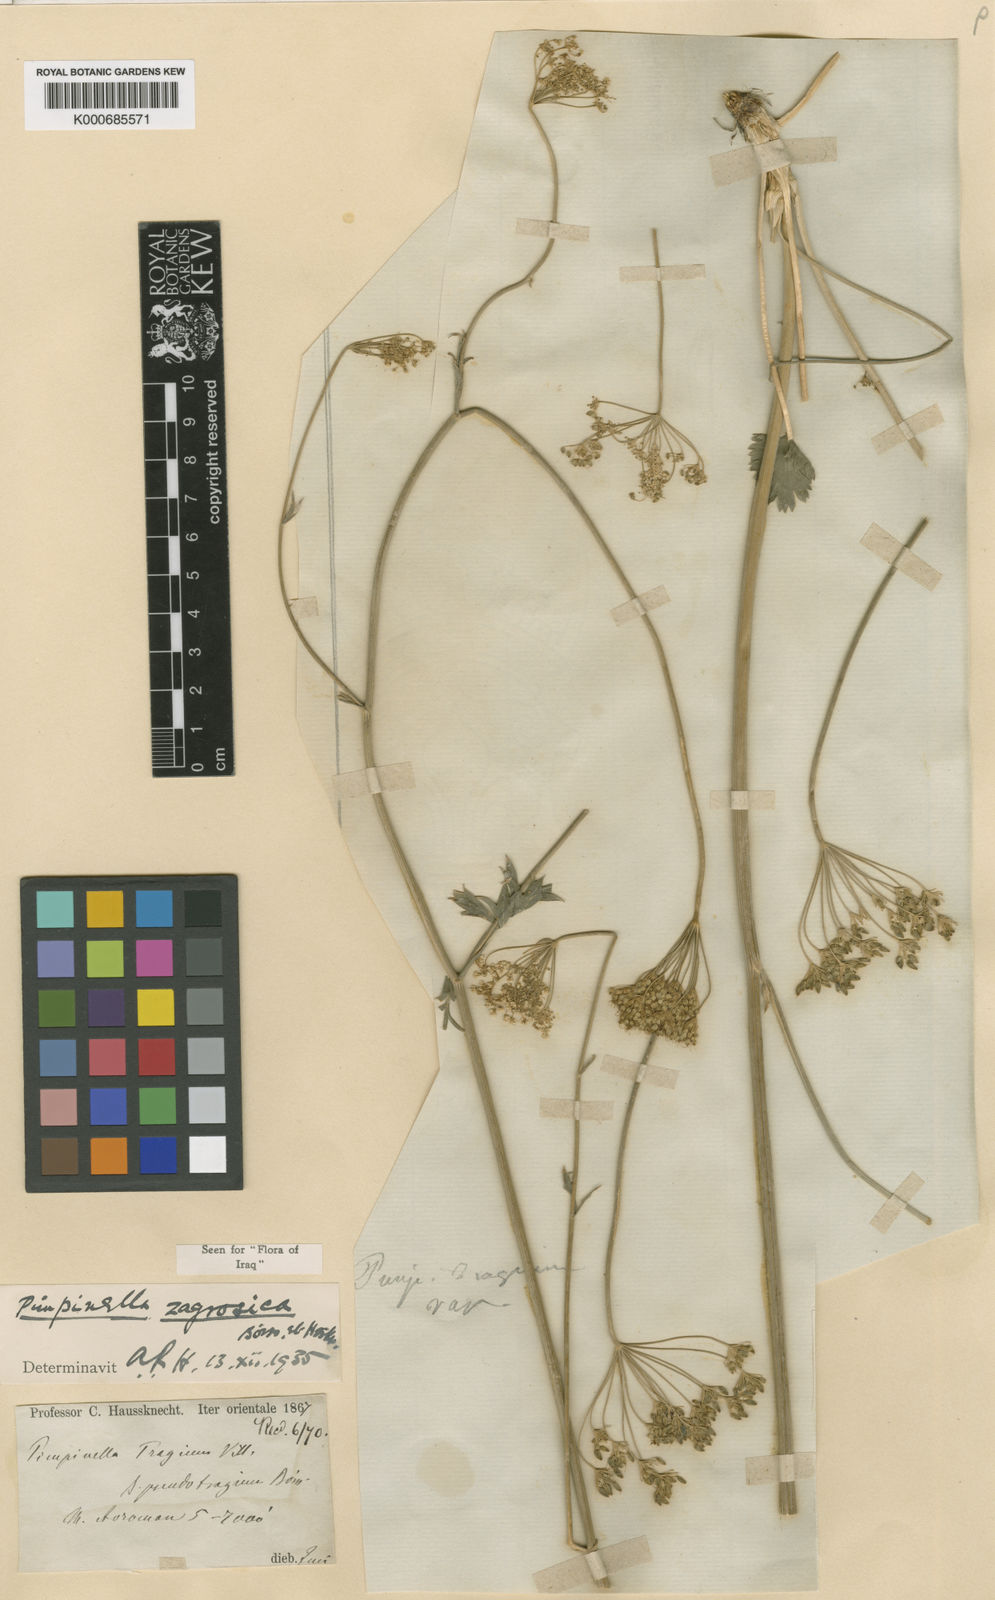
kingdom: Plantae
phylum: Tracheophyta
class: Magnoliopsida
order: Apiales
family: Apiaceae
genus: Pimpinella
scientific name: Pimpinella
